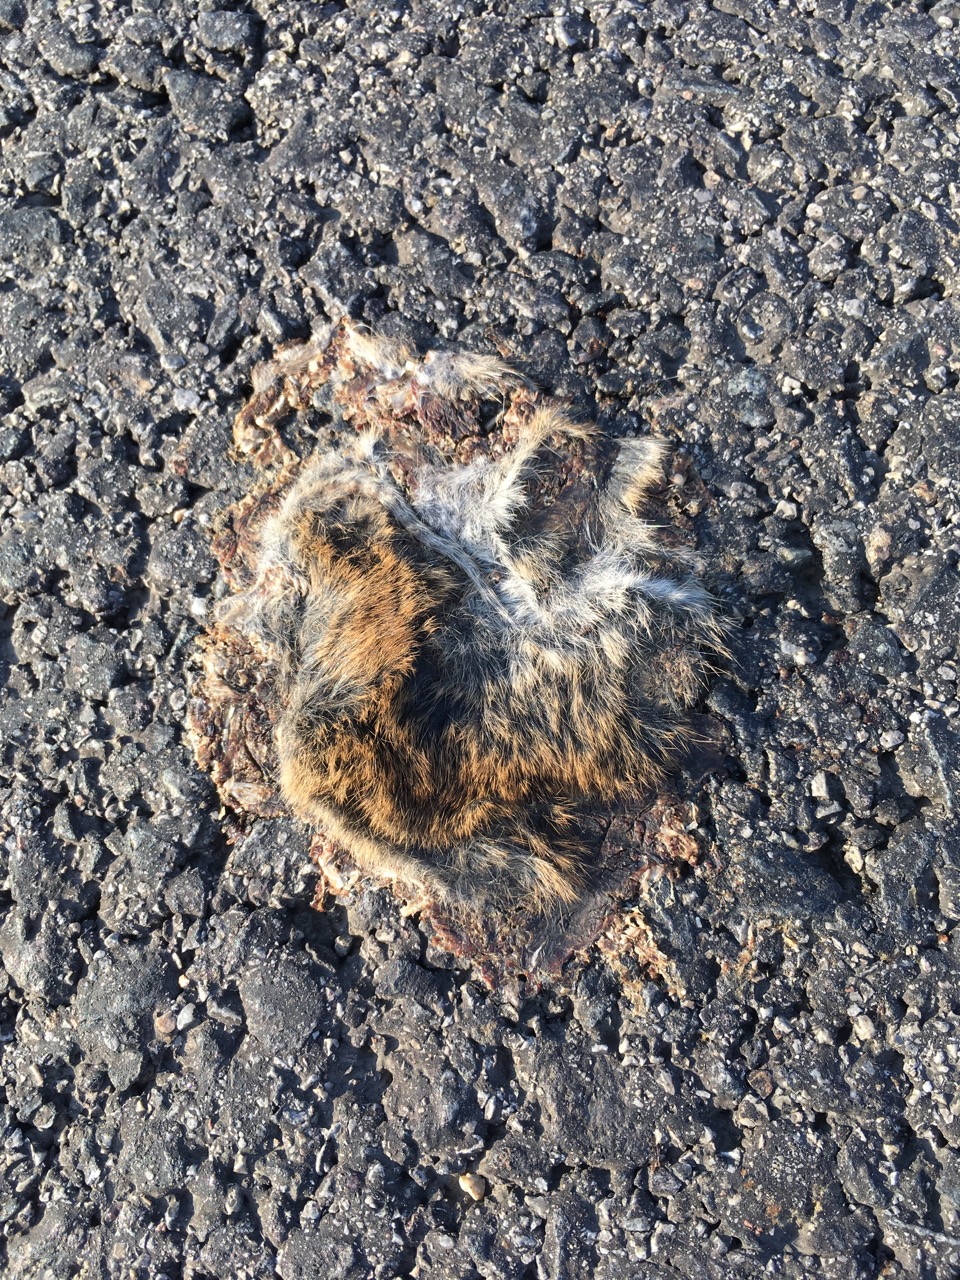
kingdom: Animalia
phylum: Chordata
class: Mammalia
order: Rodentia
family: Cricetidae
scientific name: Cricetidae
